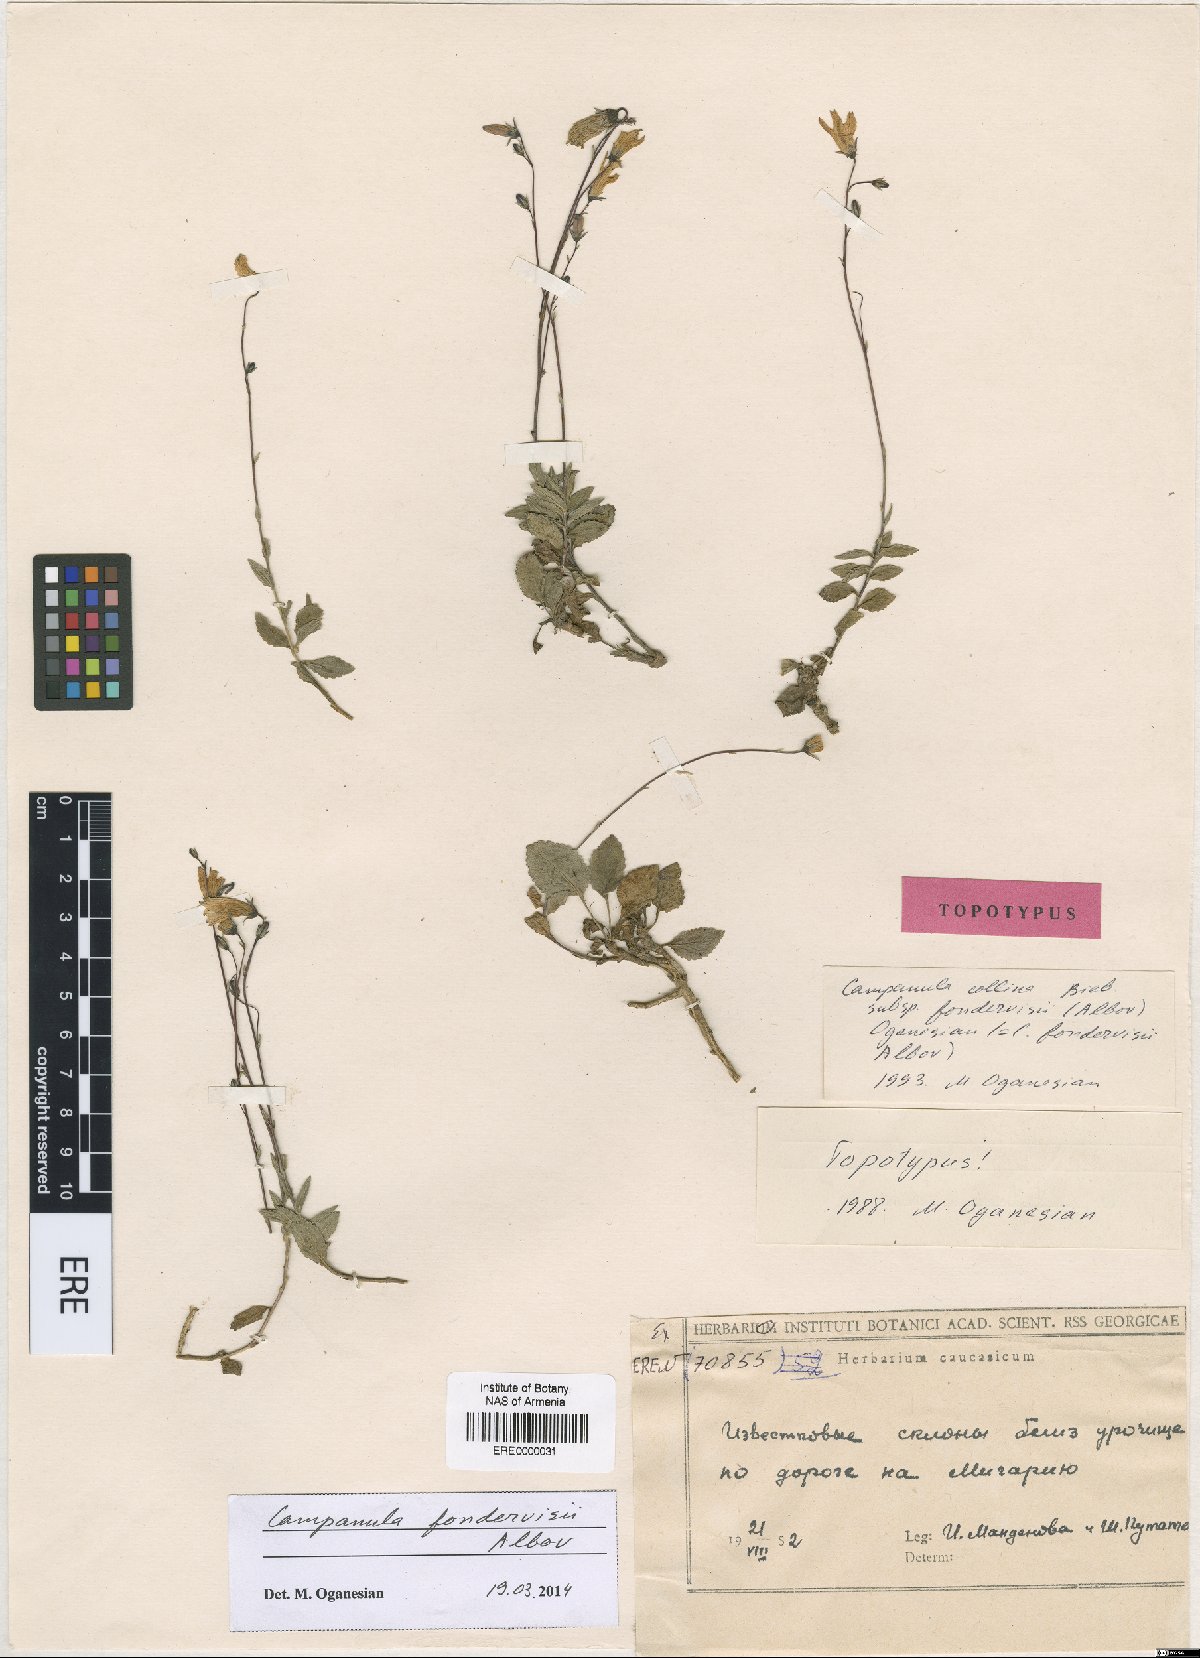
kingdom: Plantae
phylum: Tracheophyta
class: Magnoliopsida
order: Asterales
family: Campanulaceae
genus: Campanula
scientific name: Campanula collina
